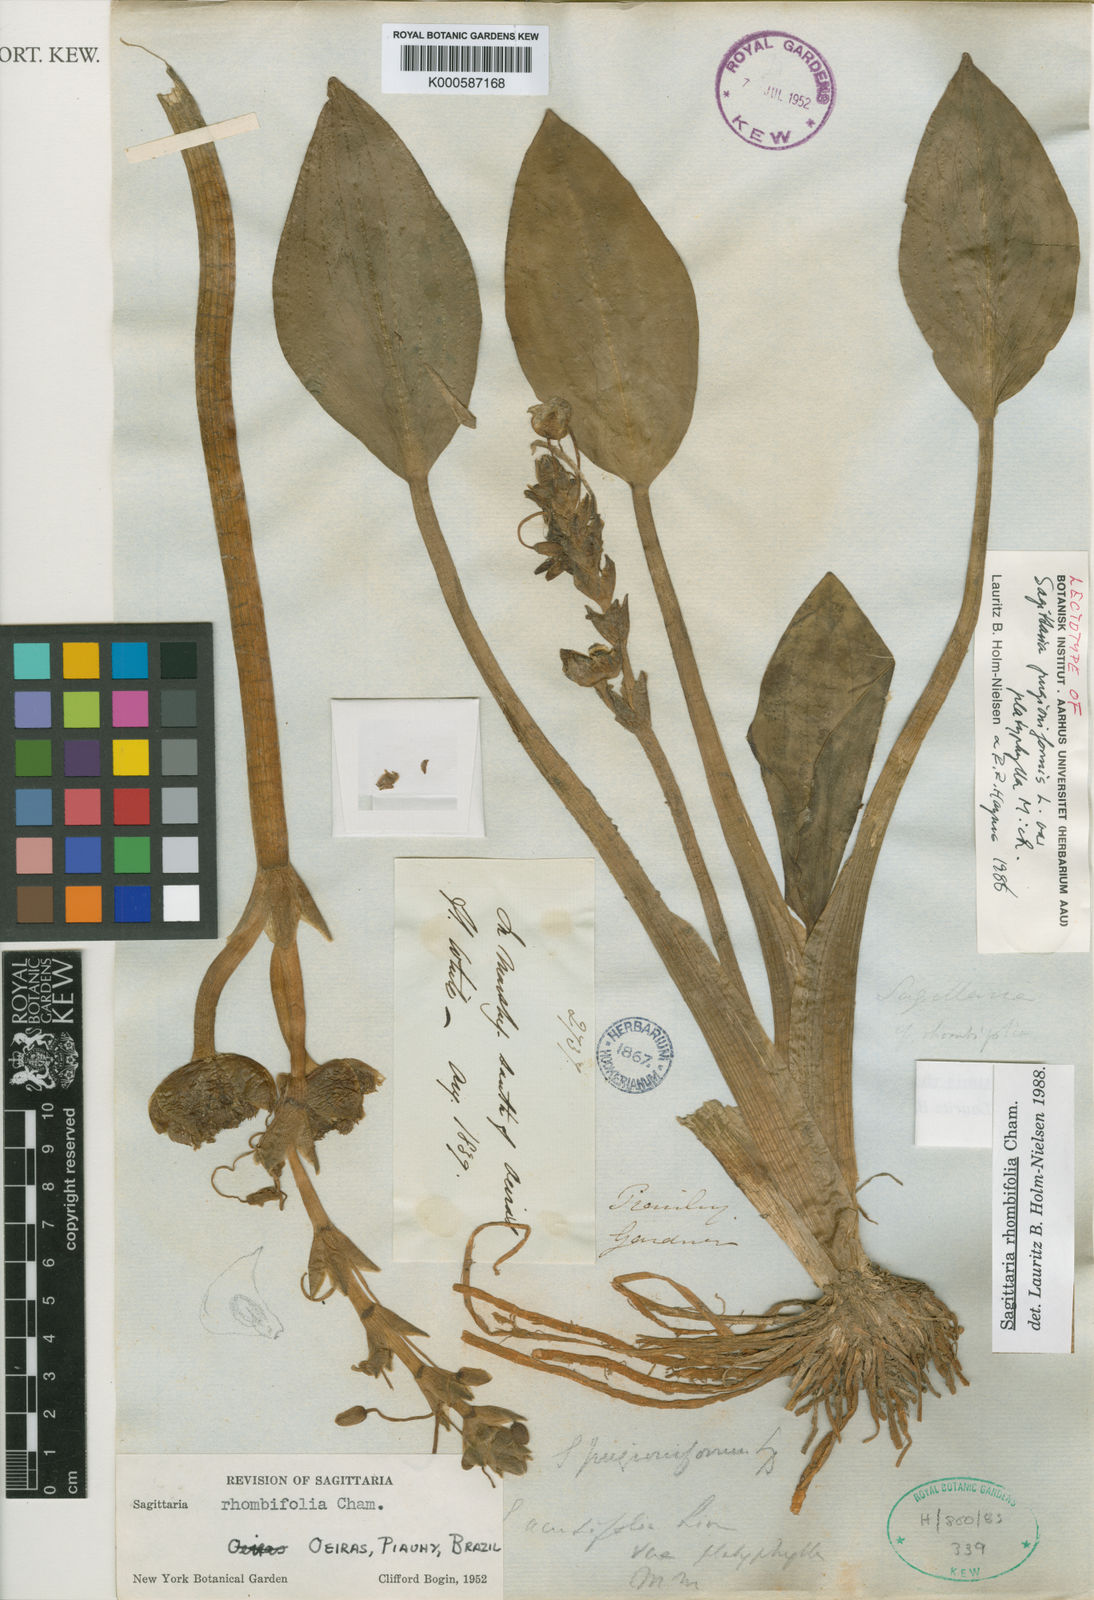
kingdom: Plantae
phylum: Tracheophyta
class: Liliopsida
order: Alismatales
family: Alismataceae
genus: Sagittaria
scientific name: Sagittaria rhombifolia
